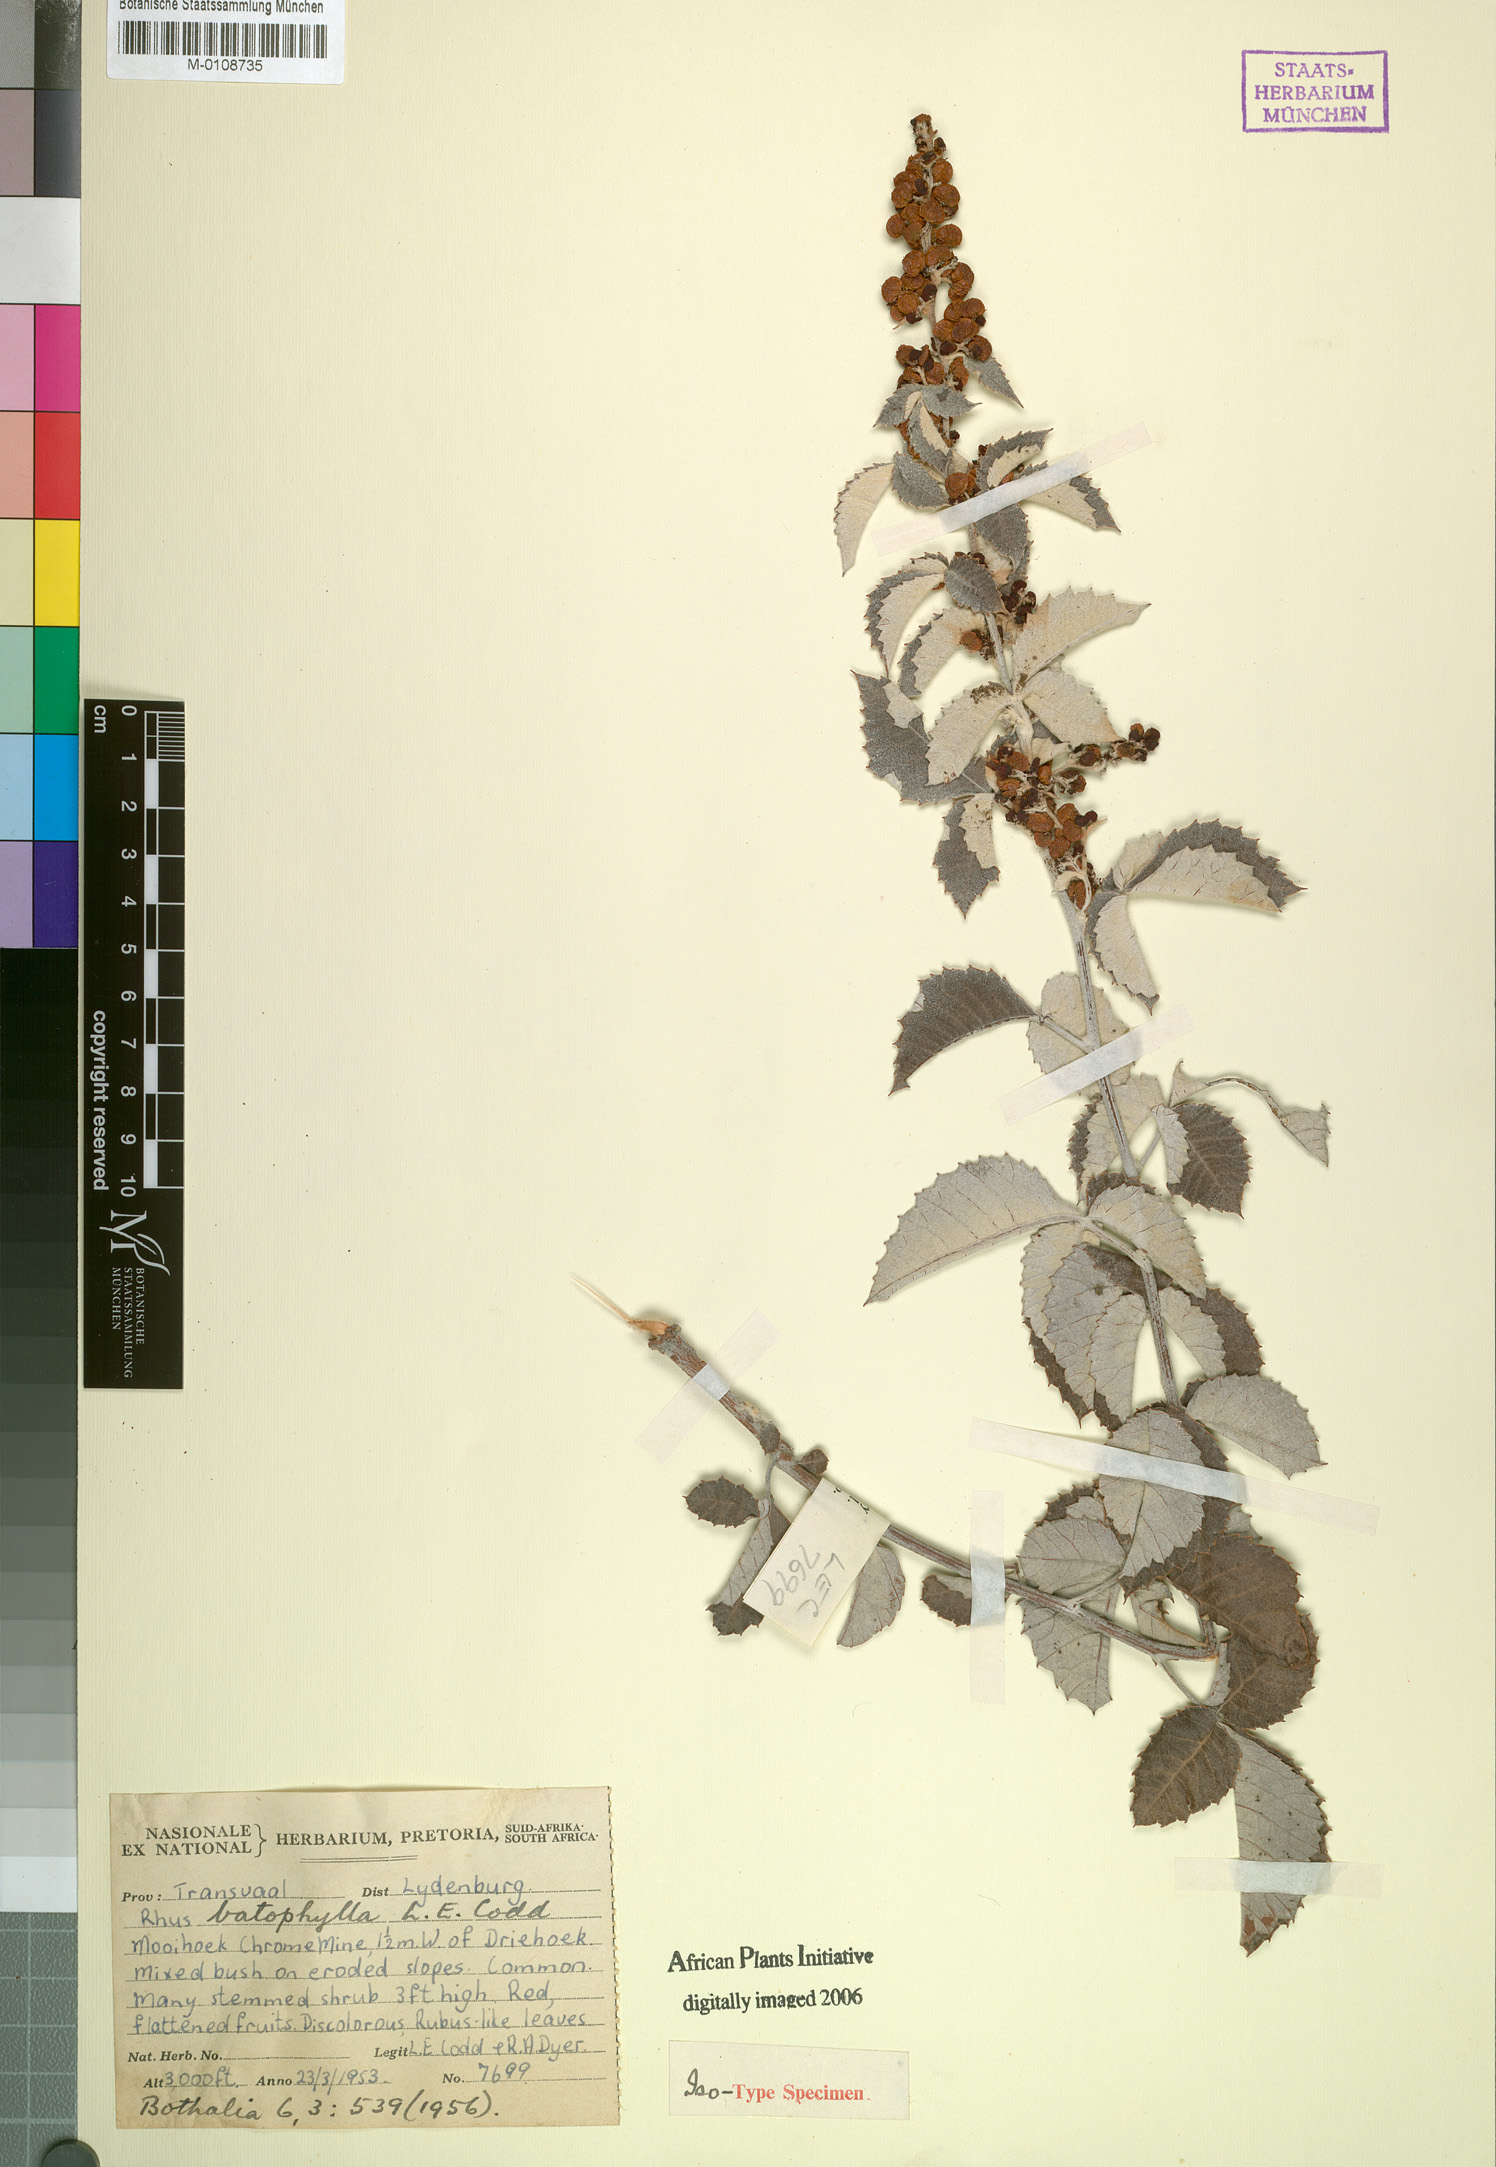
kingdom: Plantae
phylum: Tracheophyta
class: Magnoliopsida
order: Sapindales
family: Anacardiaceae
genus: Searsia
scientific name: Searsia batophylla
